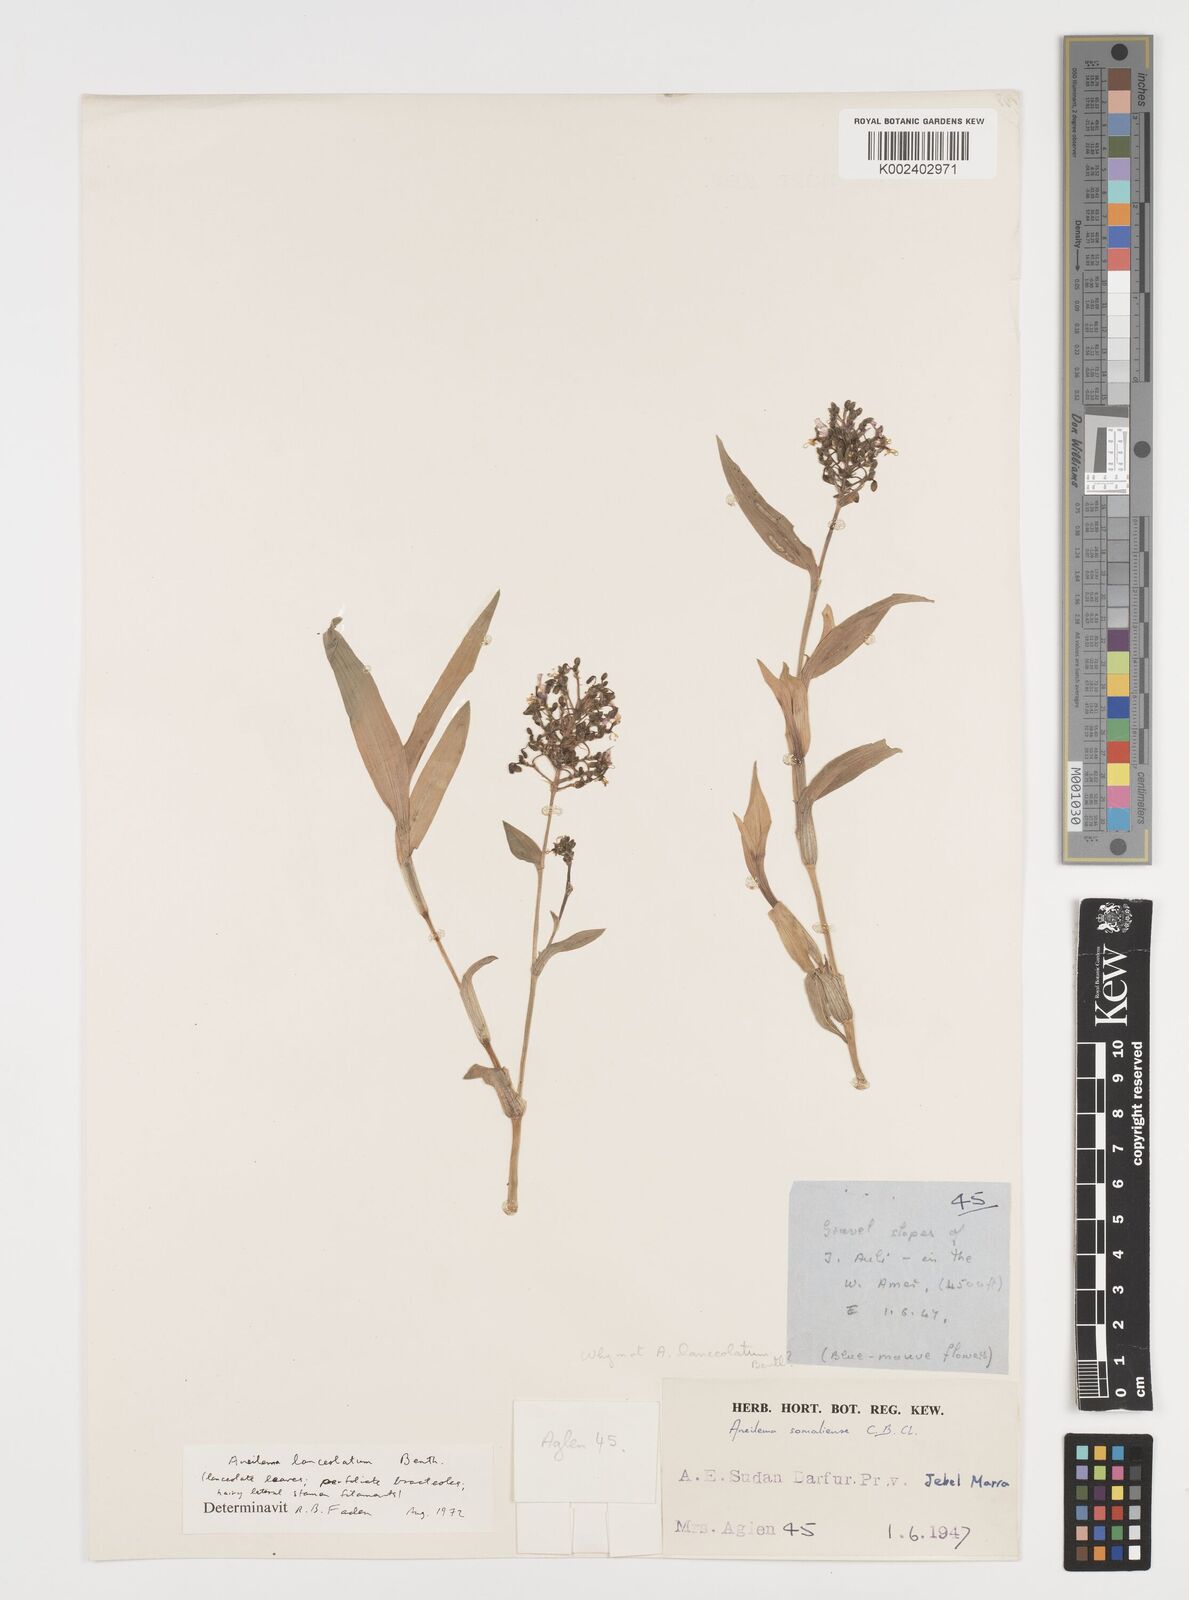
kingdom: Plantae
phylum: Tracheophyta
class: Liliopsida
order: Commelinales
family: Commelinaceae
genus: Aneilema
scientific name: Aneilema lanceolatum
